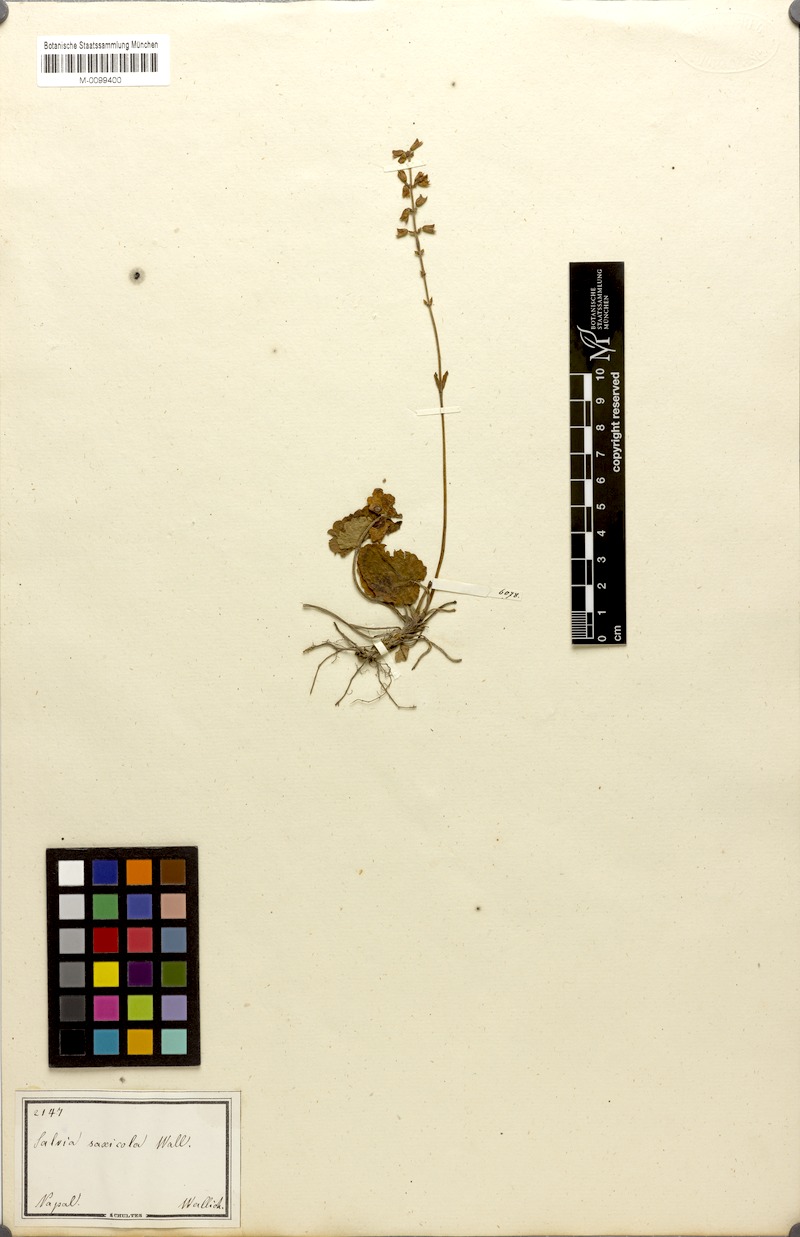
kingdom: Plantae
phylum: Tracheophyta
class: Magnoliopsida
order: Lamiales
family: Lamiaceae
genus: Salvia
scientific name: Salvia saxicola
